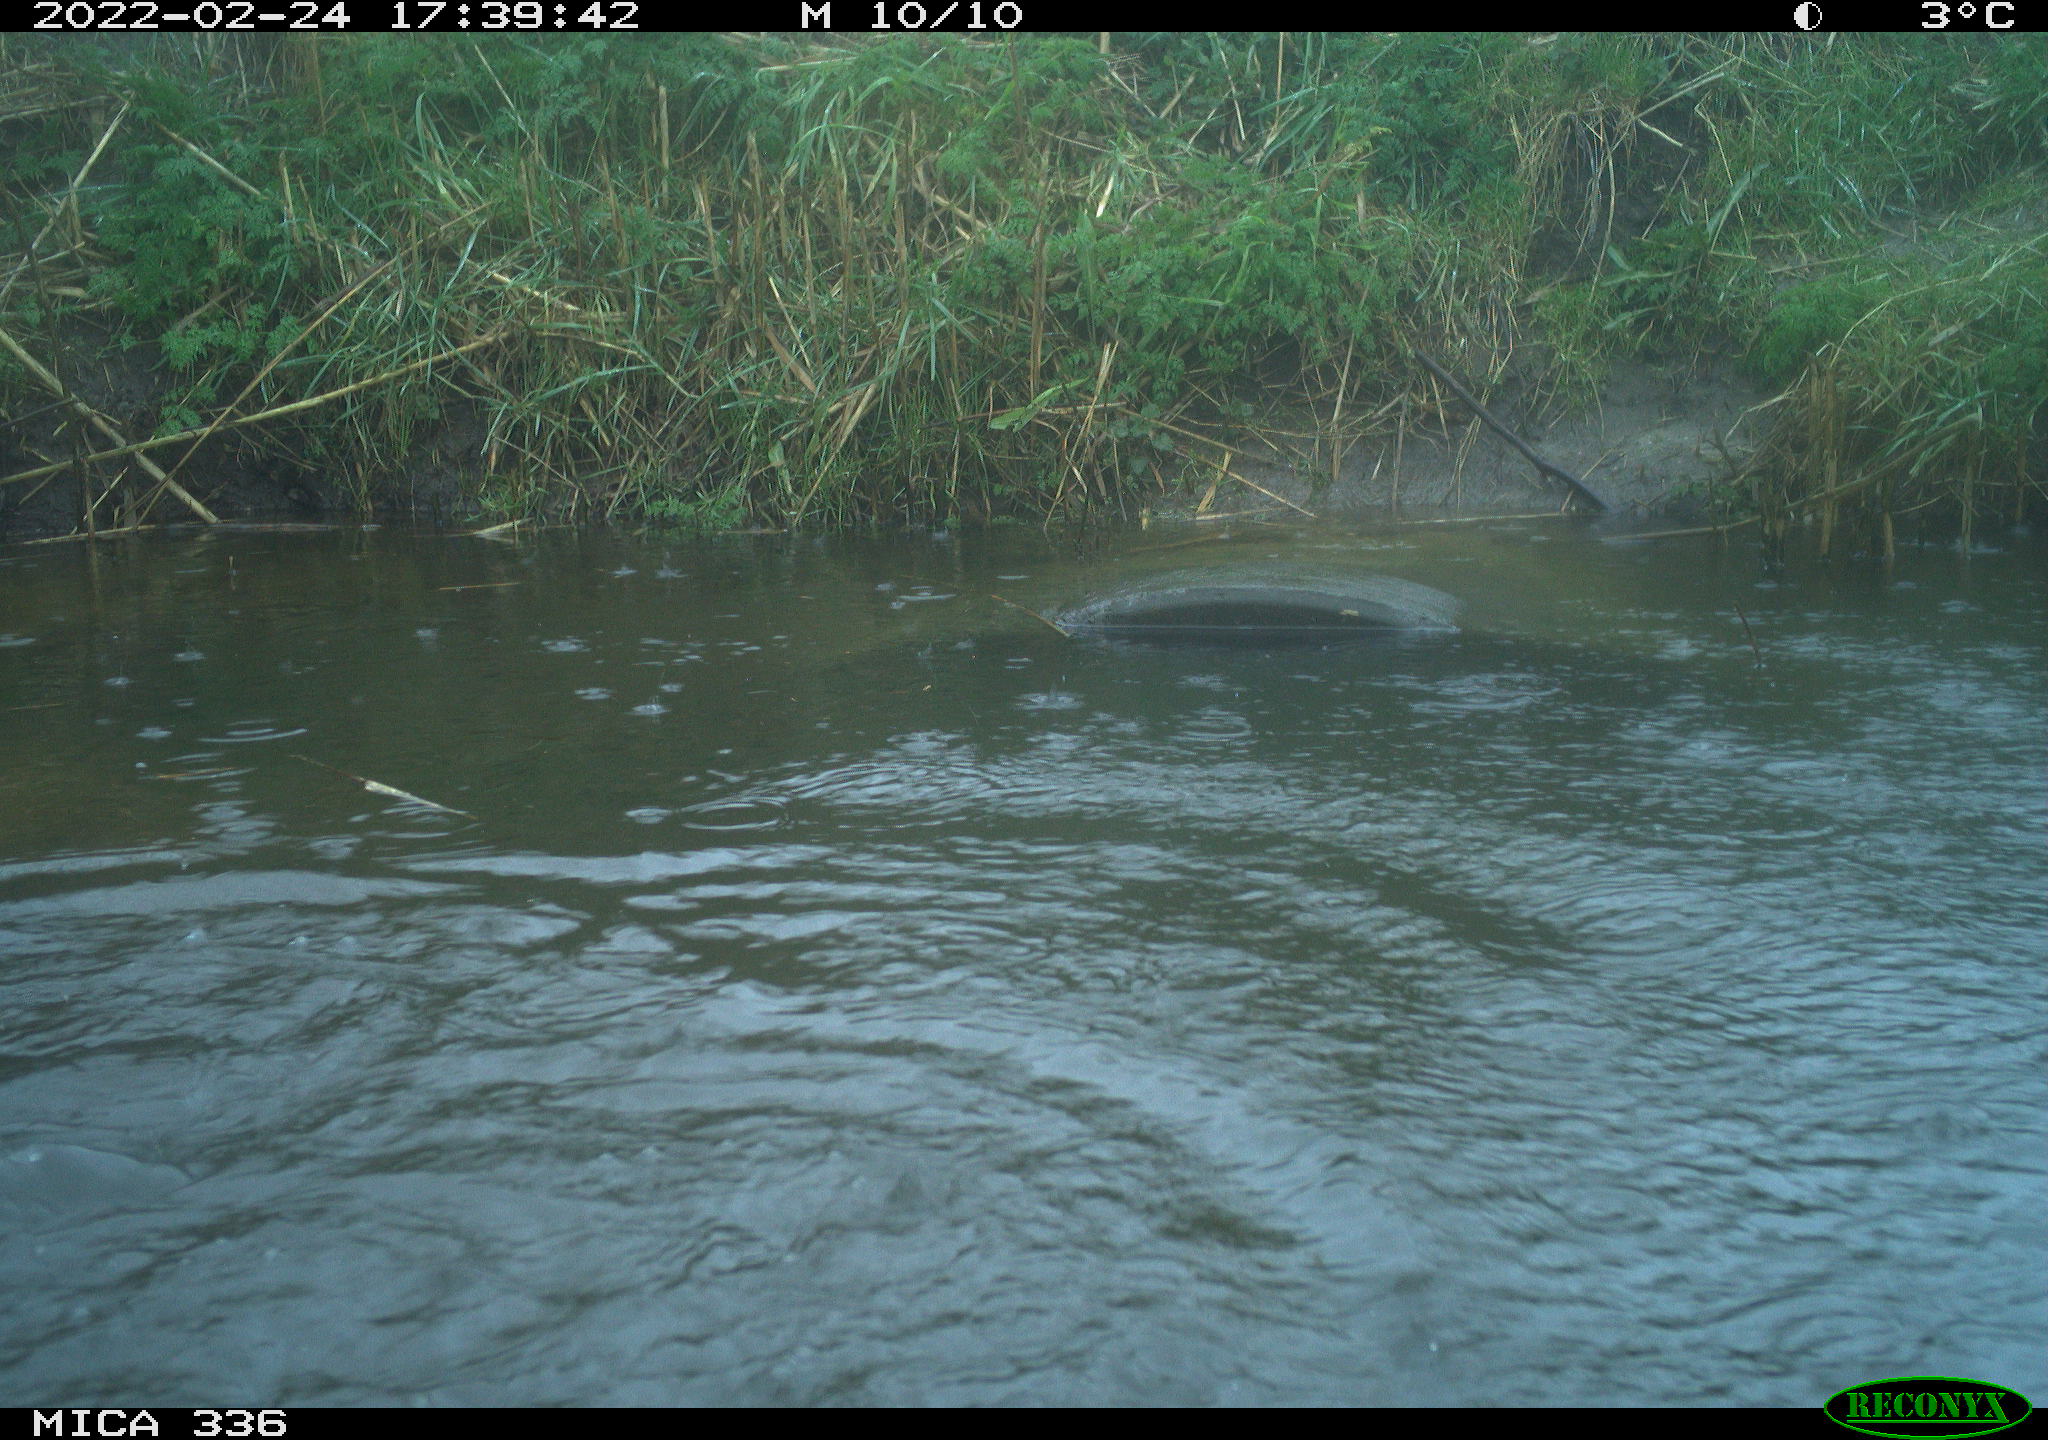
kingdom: Animalia
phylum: Chordata
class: Aves
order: Podicipediformes
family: Podicipedidae
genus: Podiceps
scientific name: Podiceps cristatus
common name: Great crested grebe
